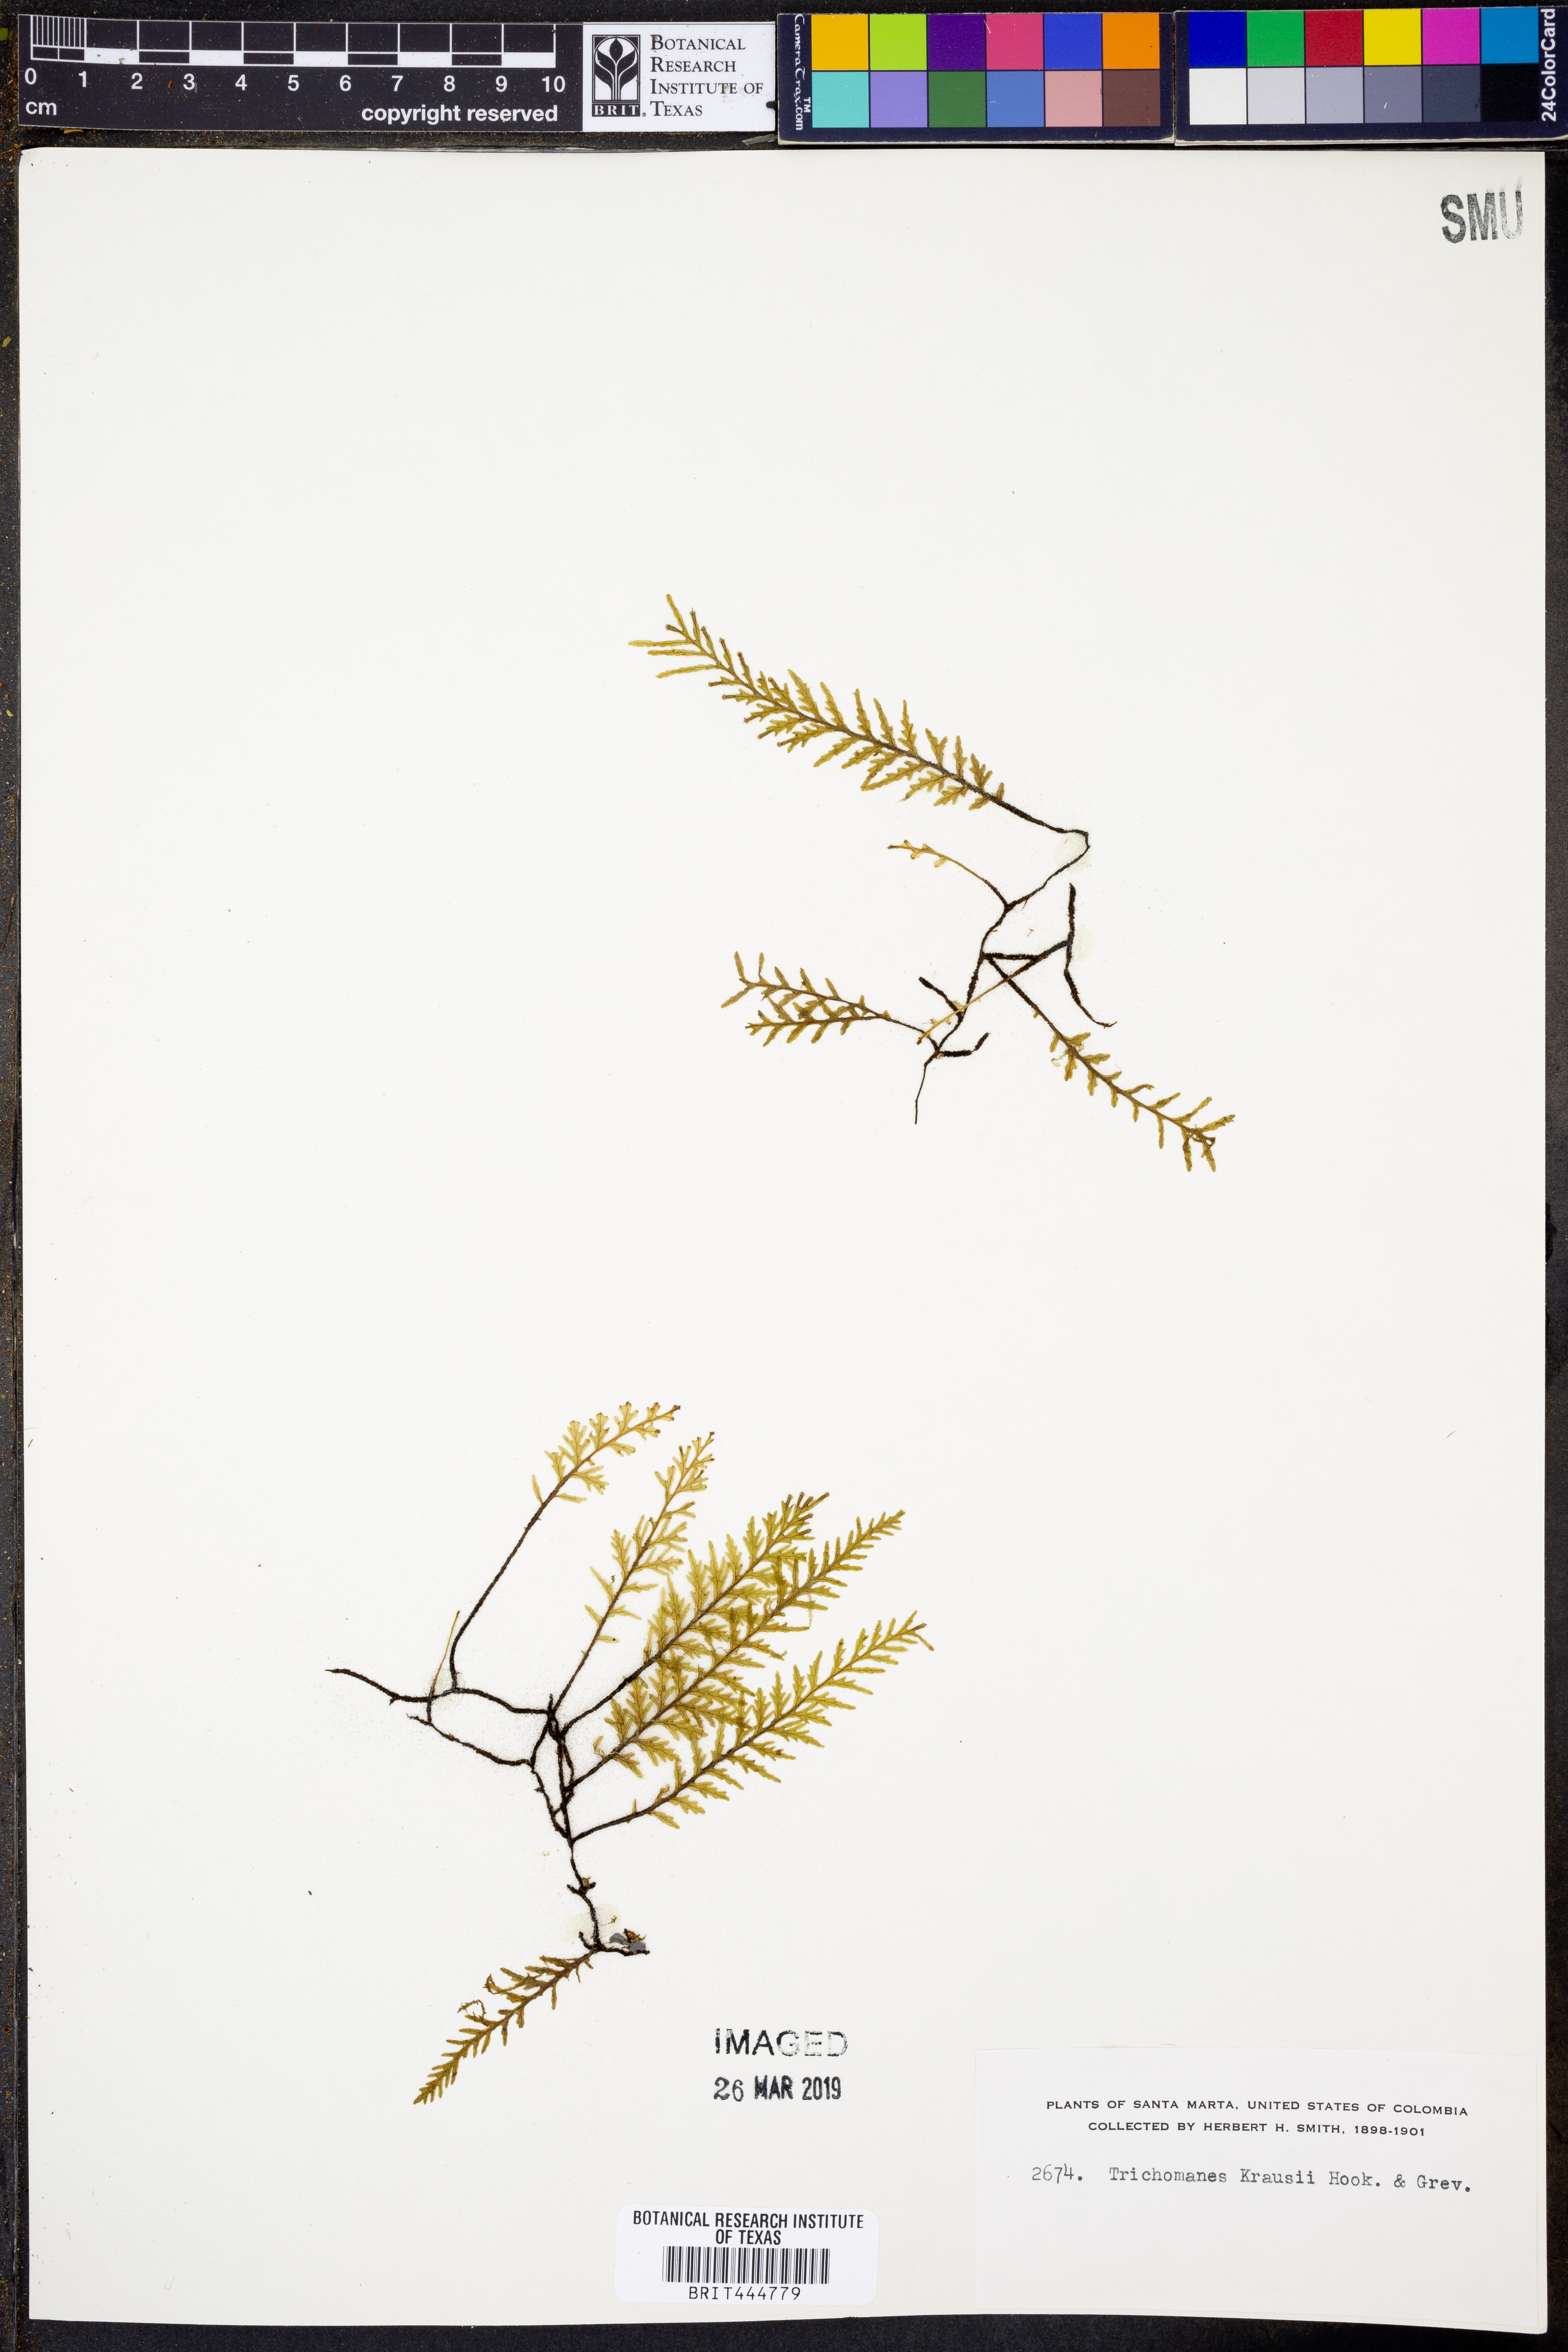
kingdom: Plantae
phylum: Tracheophyta
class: Polypodiopsida
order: Hymenophyllales
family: Hymenophyllaceae
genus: Didymoglossum
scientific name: Didymoglossum kraussii
